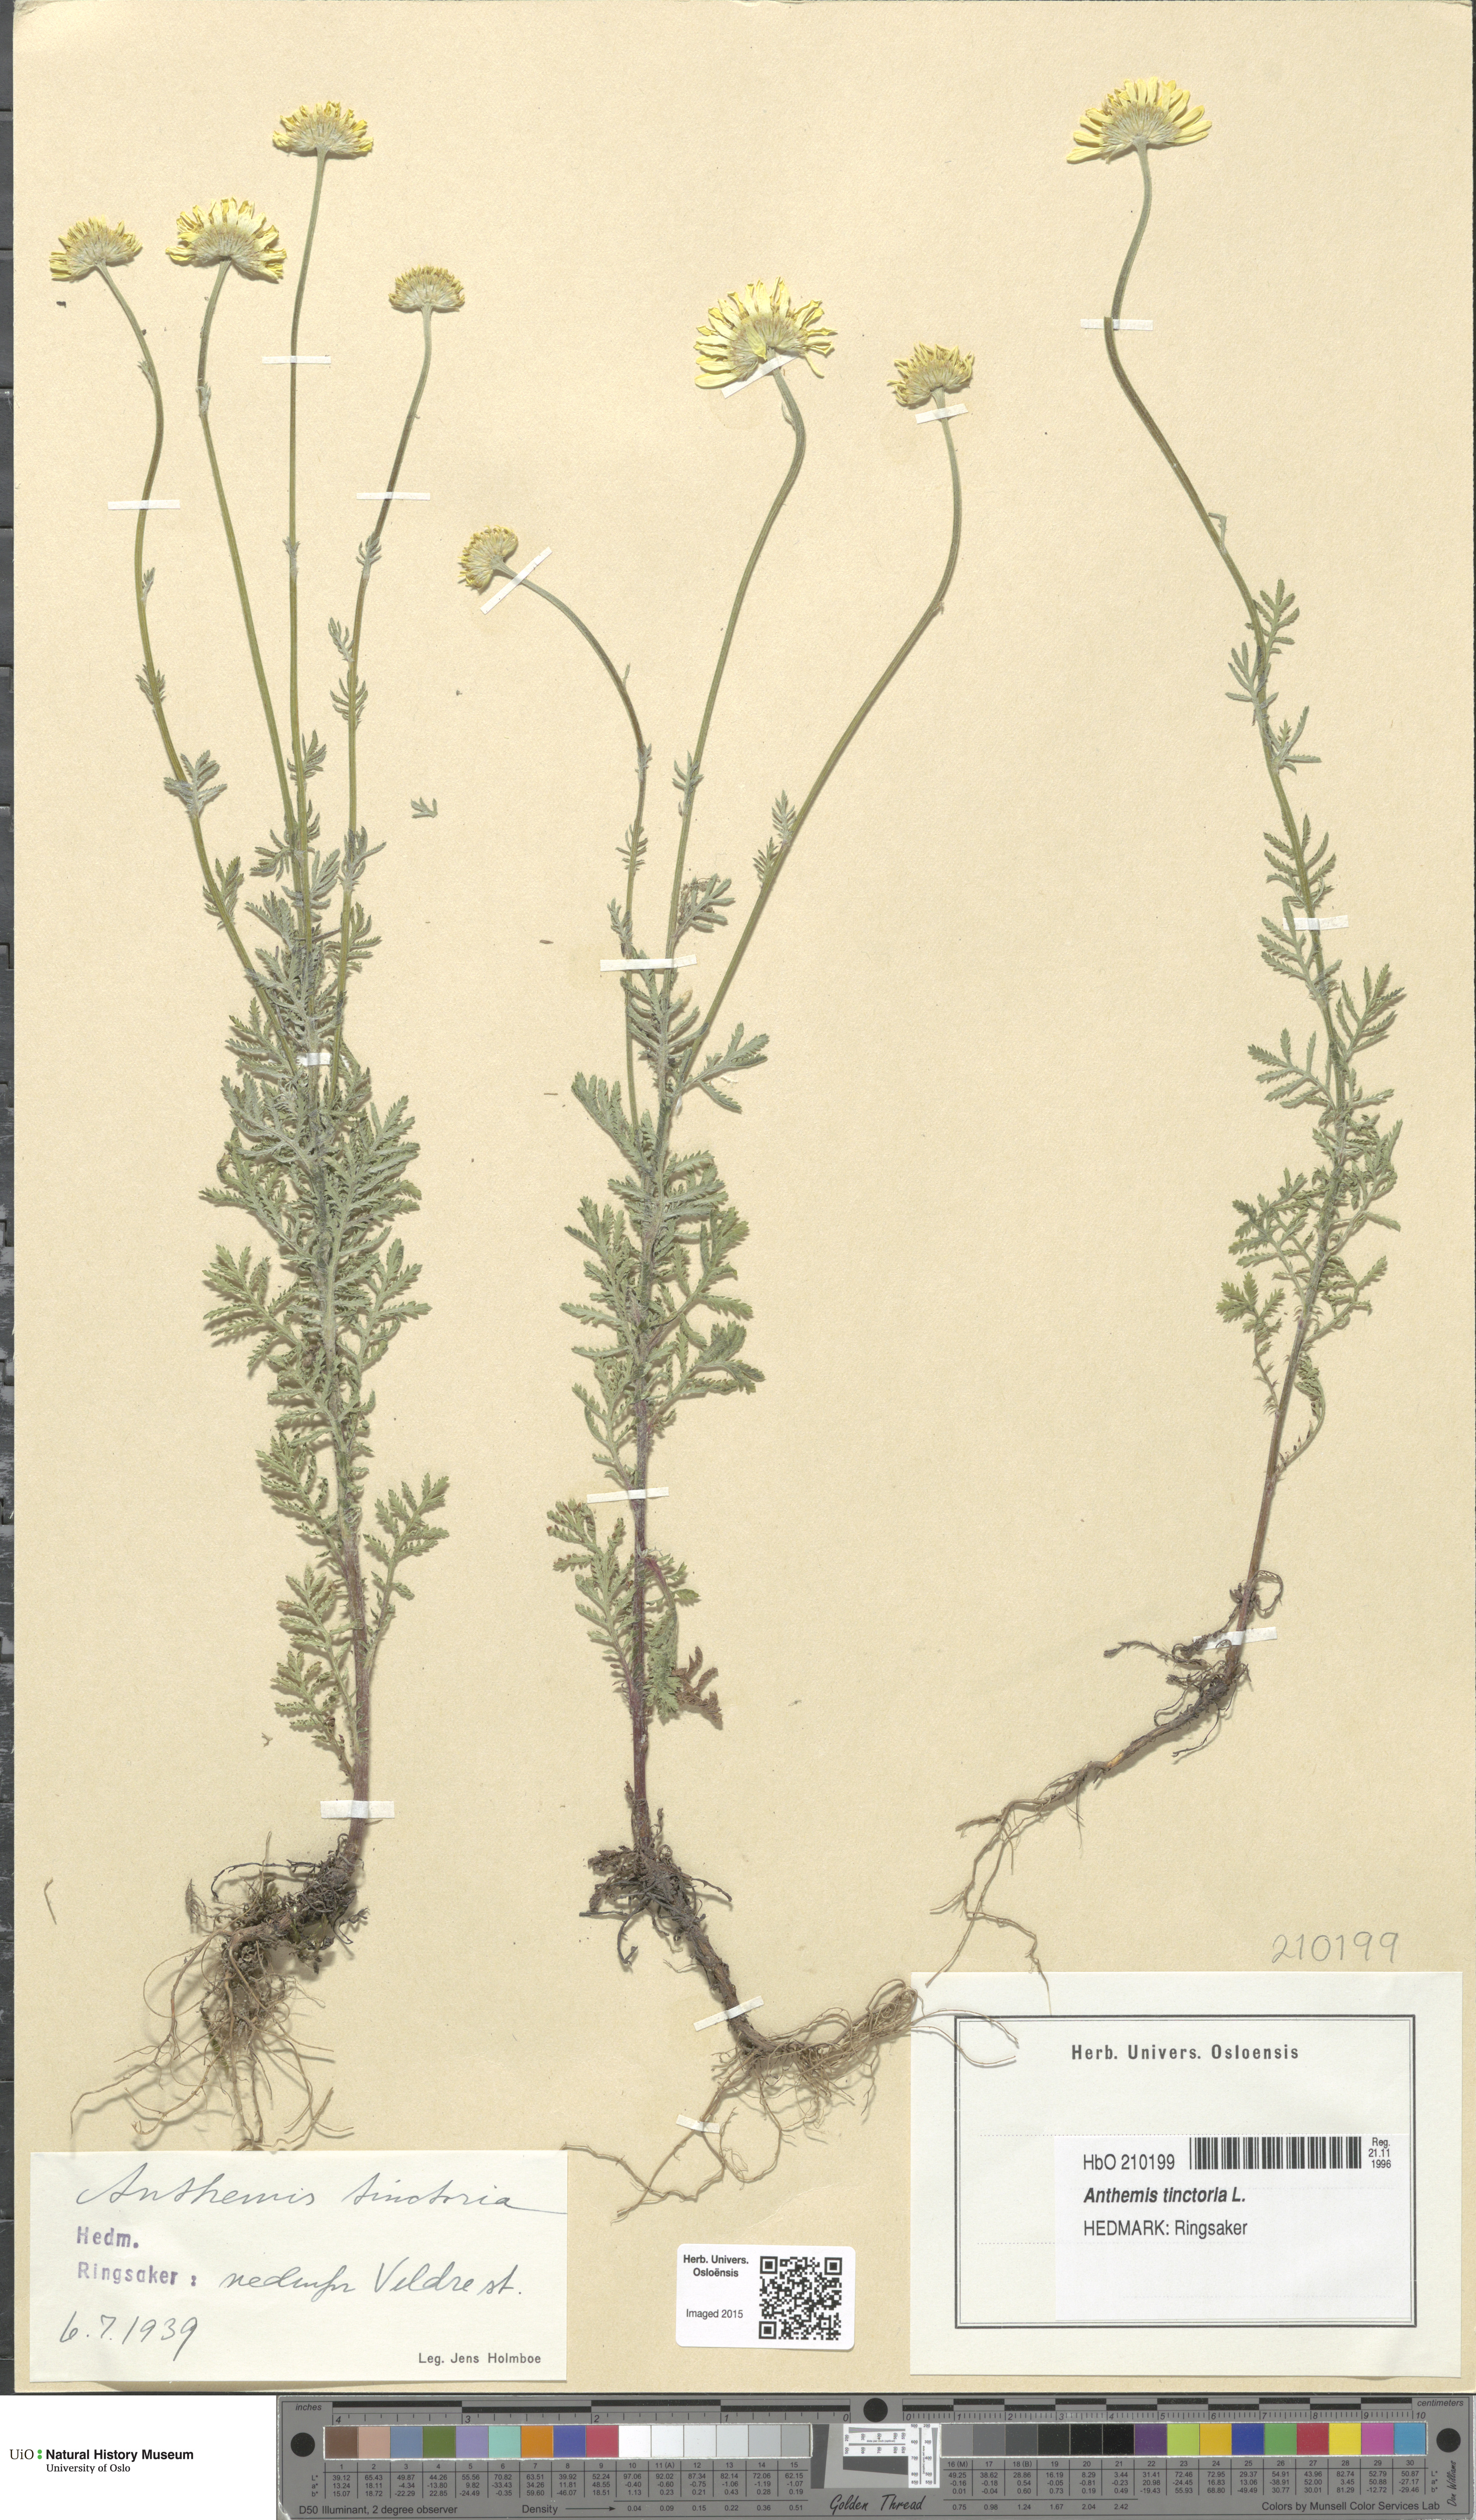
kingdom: Plantae
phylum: Tracheophyta
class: Magnoliopsida
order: Asterales
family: Asteraceae
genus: Cota
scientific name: Cota tinctoria
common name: Golden chamomile
